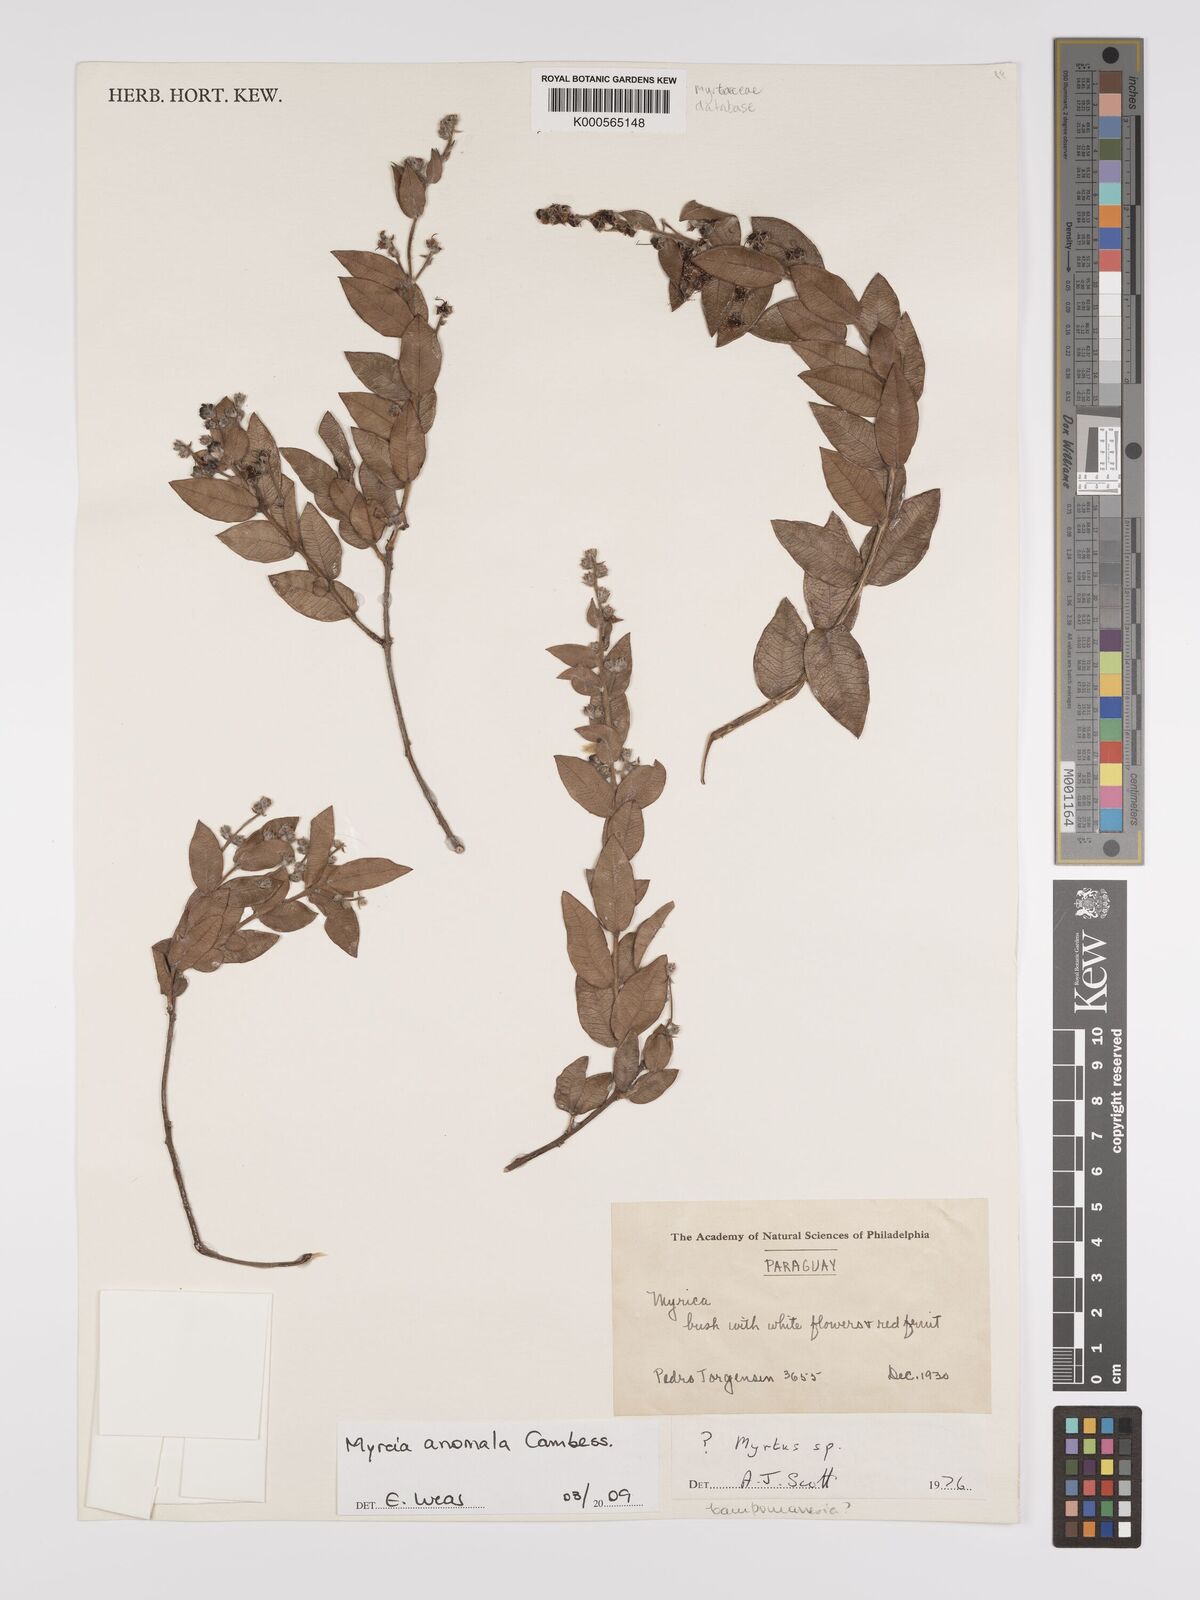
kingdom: Plantae
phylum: Tracheophyta
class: Magnoliopsida
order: Myrtales
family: Myrtaceae
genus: Myrcia
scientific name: Myrcia anomala
